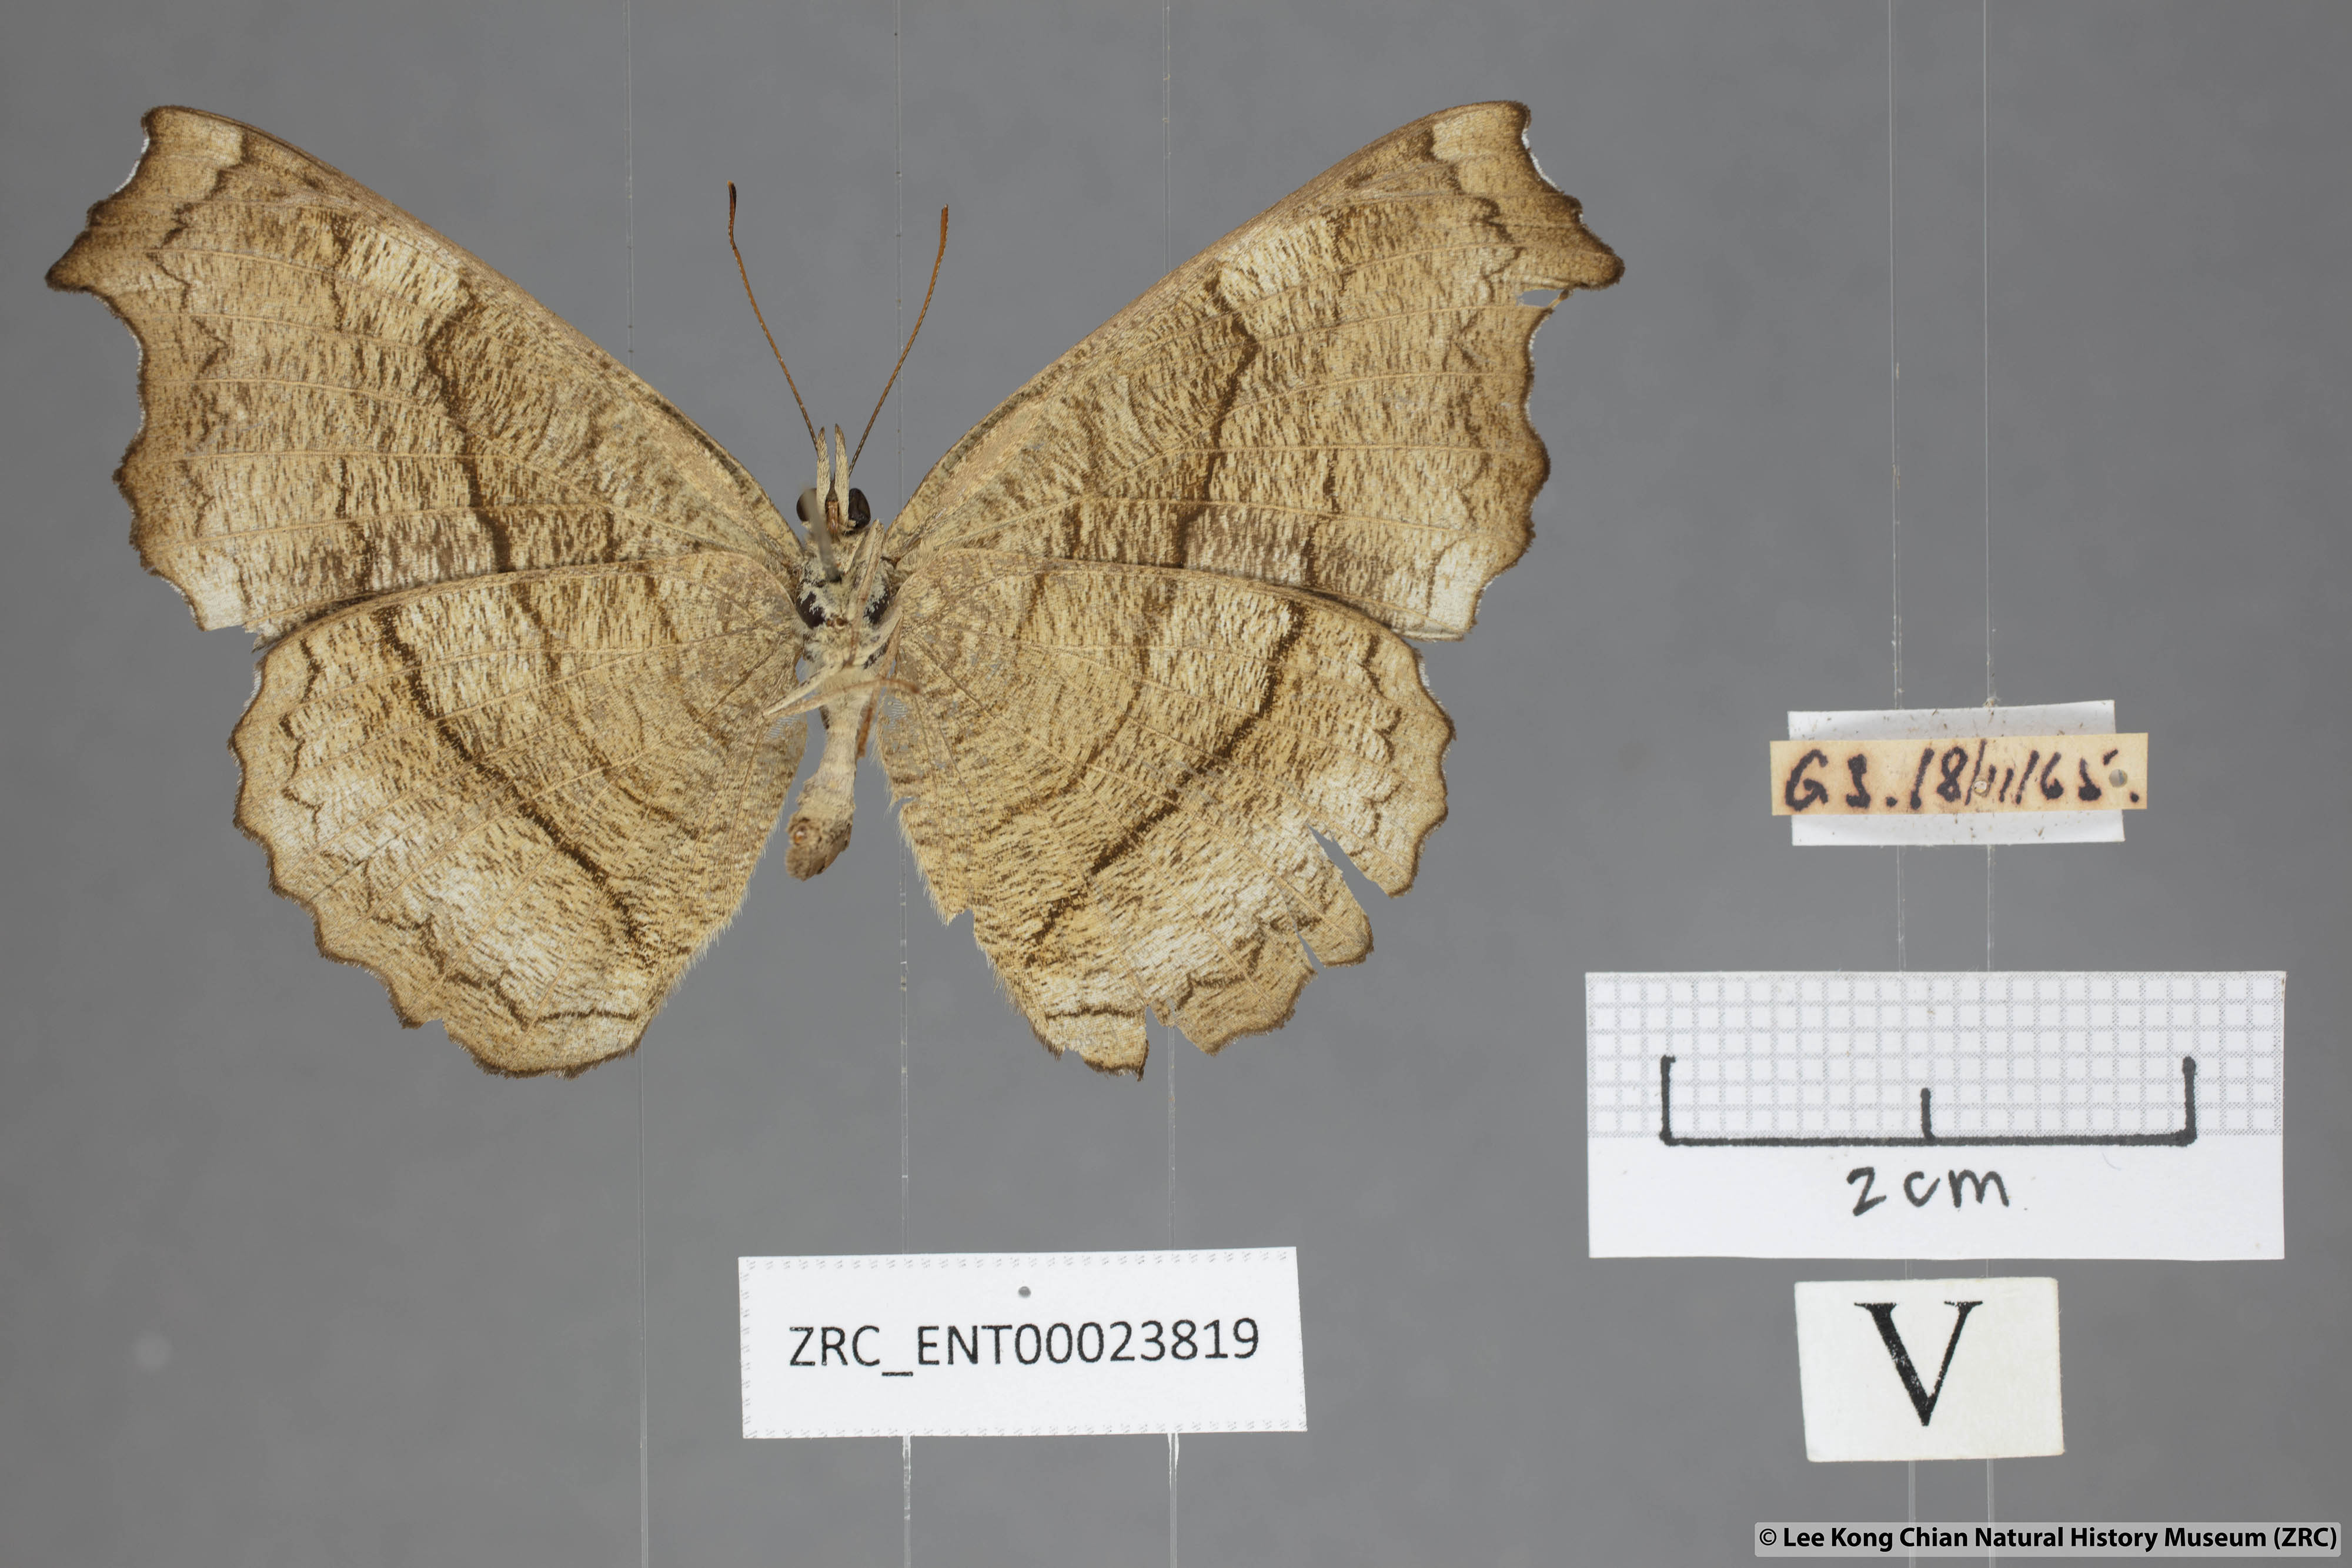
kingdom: Animalia
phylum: Arthropoda
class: Insecta
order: Lepidoptera
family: Nymphalidae
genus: Laringa
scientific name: Laringa castelnaui
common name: Blue dandy
